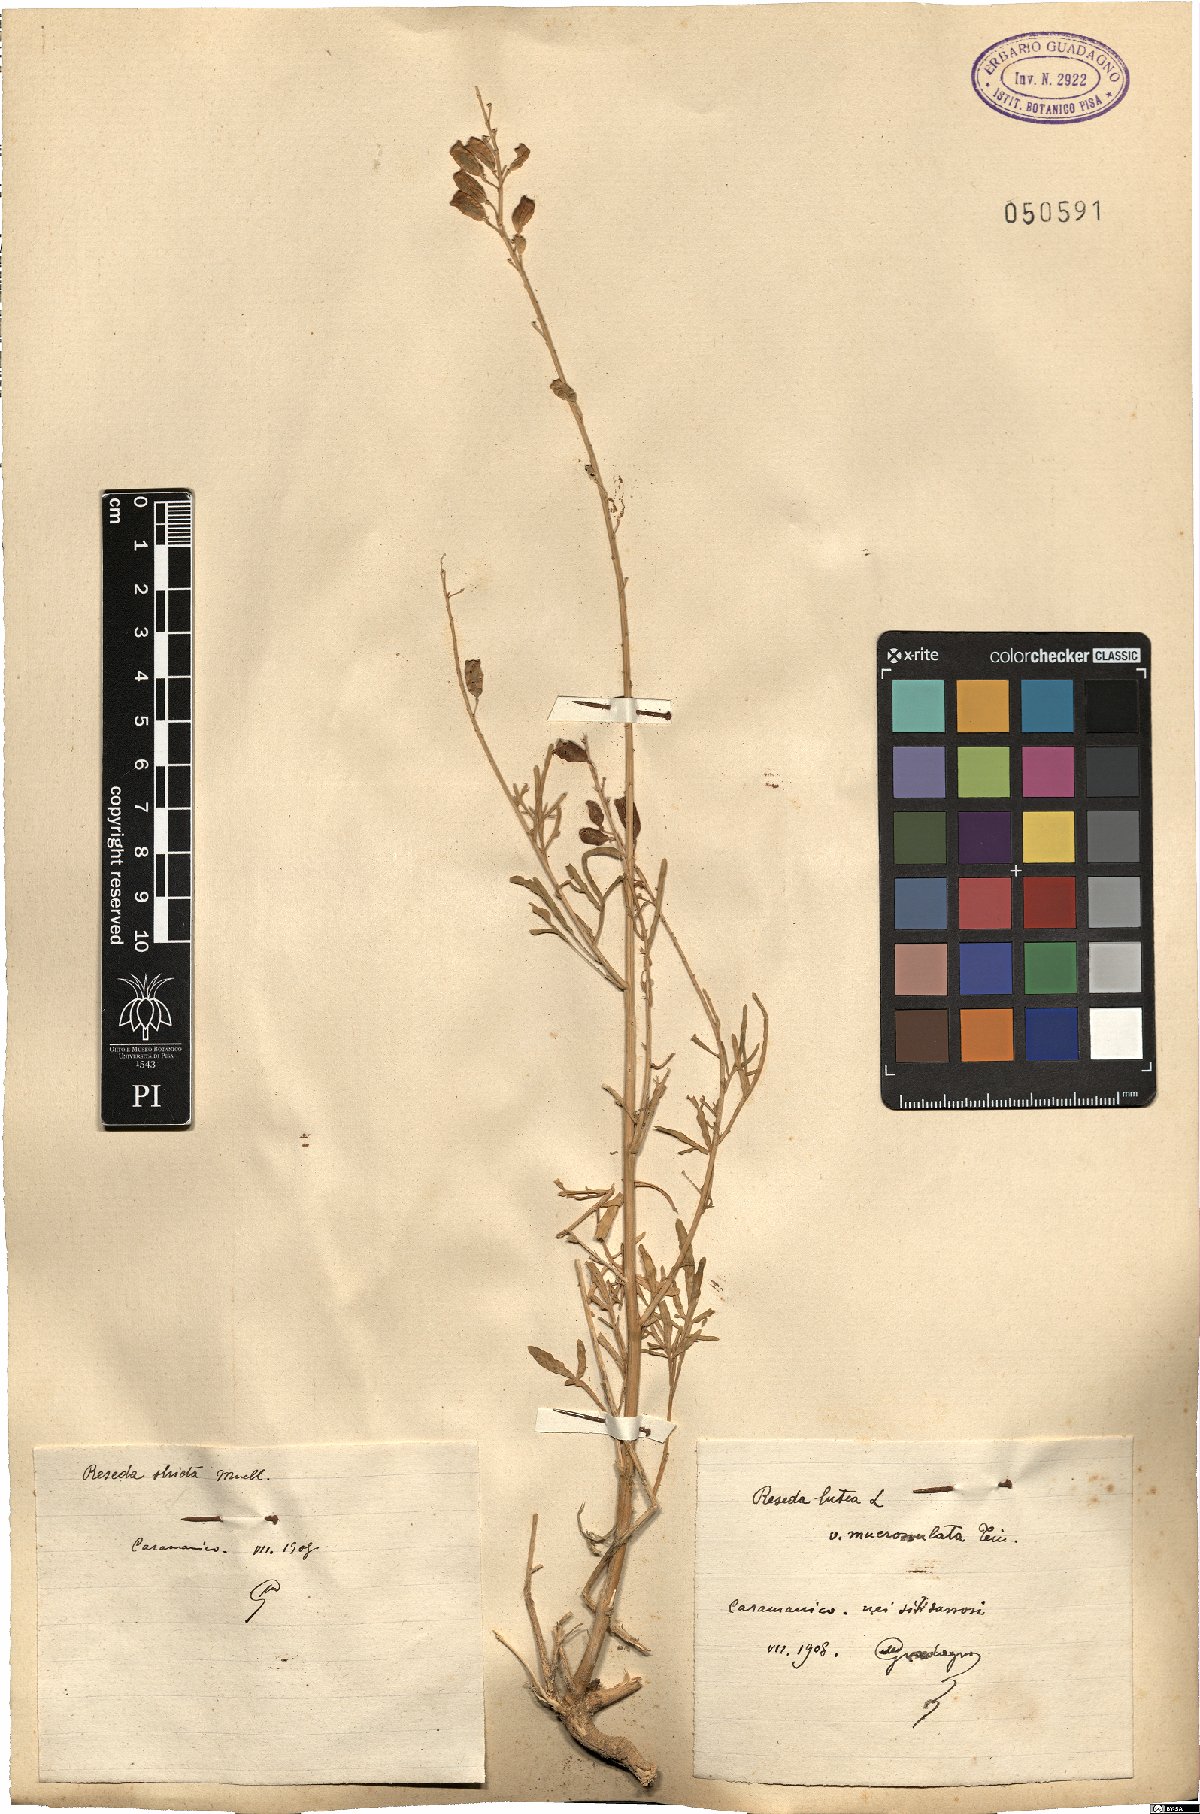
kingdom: Plantae
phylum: Tracheophyta
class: Magnoliopsida
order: Brassicales
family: Resedaceae
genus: Reseda
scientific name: Reseda stricta
